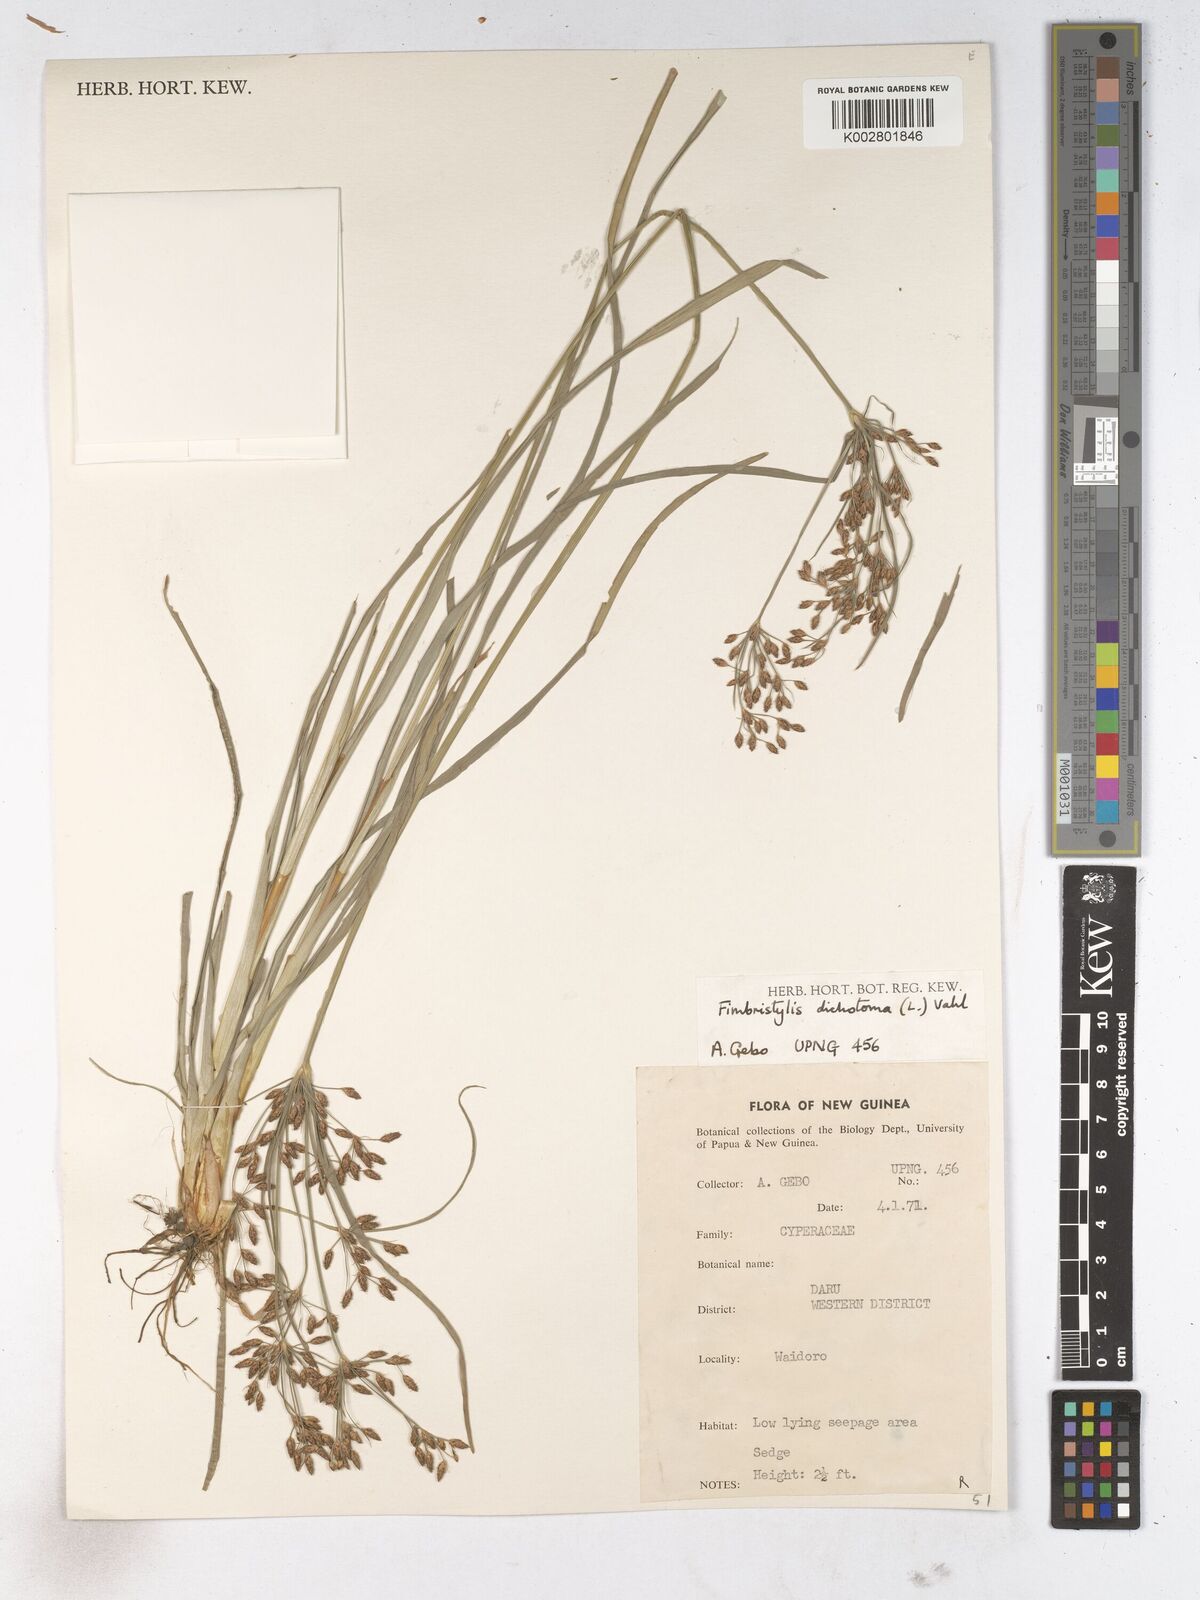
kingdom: Plantae
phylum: Tracheophyta
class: Liliopsida
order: Poales
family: Cyperaceae
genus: Fimbristylis
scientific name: Fimbristylis dichotoma
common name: Forked fimbry
